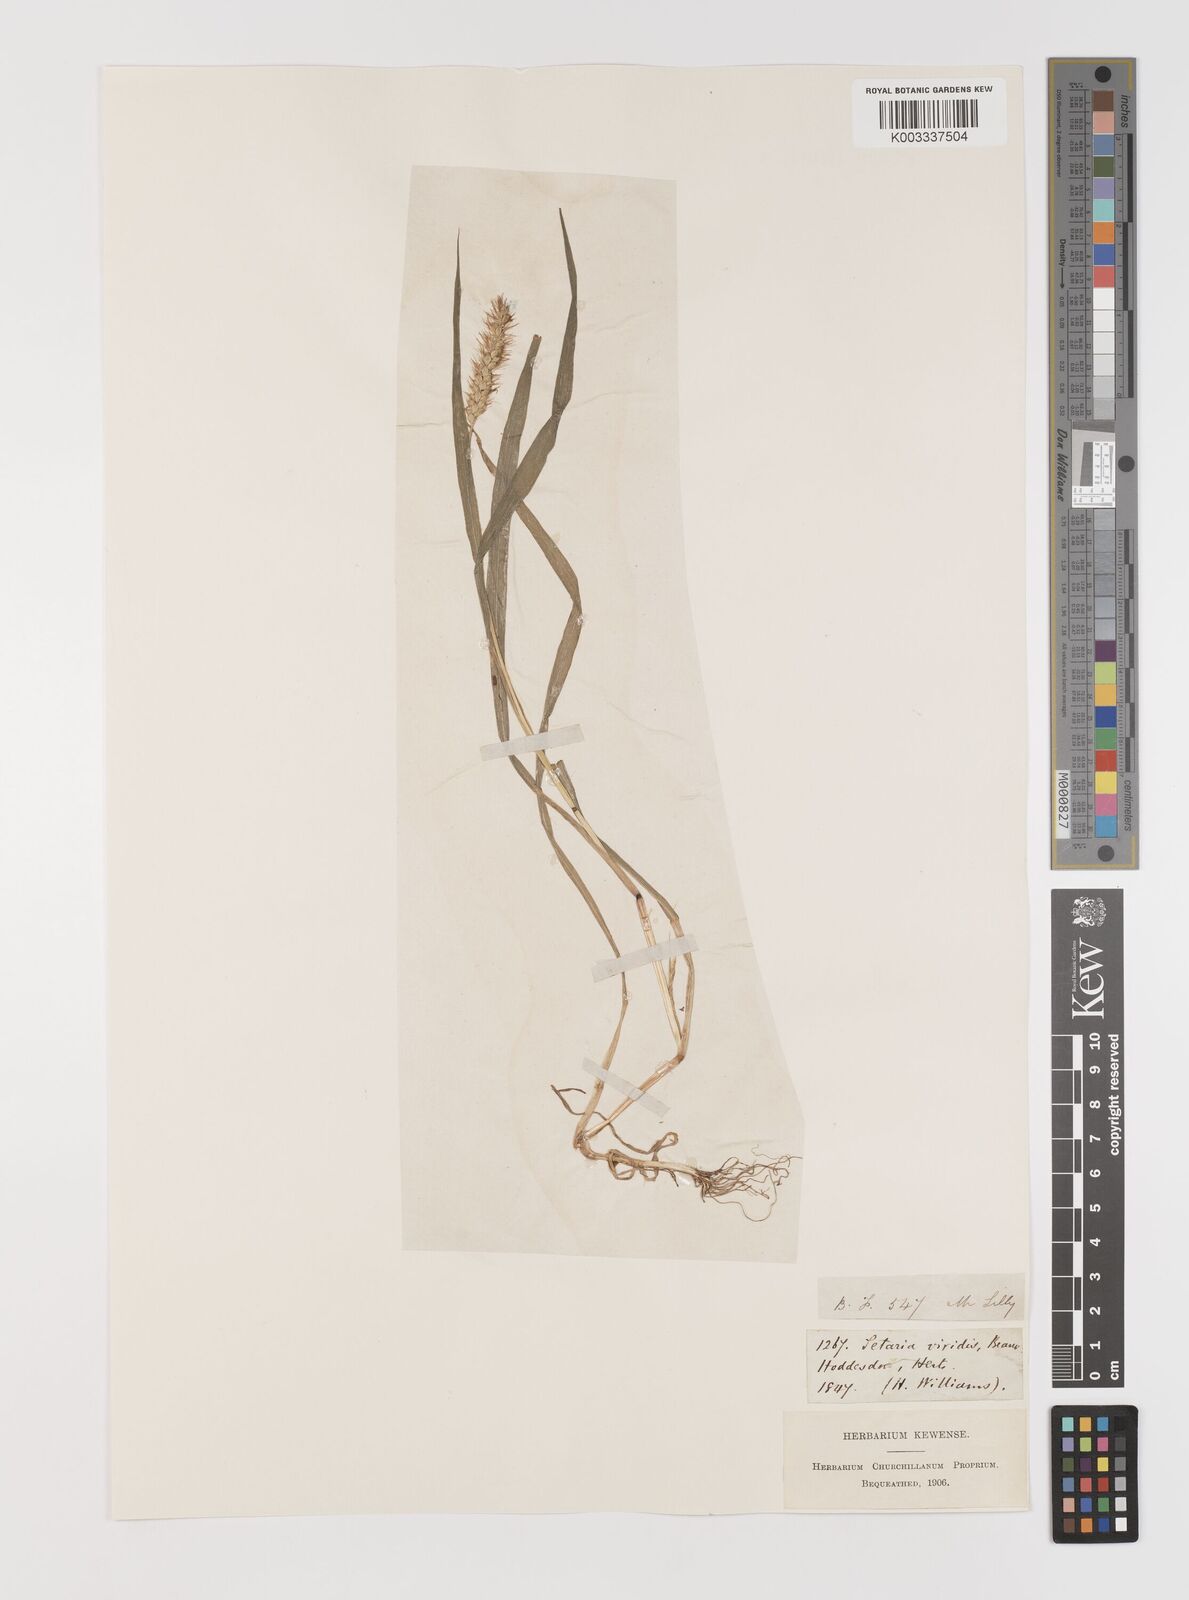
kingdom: Plantae
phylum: Tracheophyta
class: Liliopsida
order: Poales
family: Poaceae
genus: Setaria
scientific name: Setaria pumila
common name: Yellow bristle-grass
